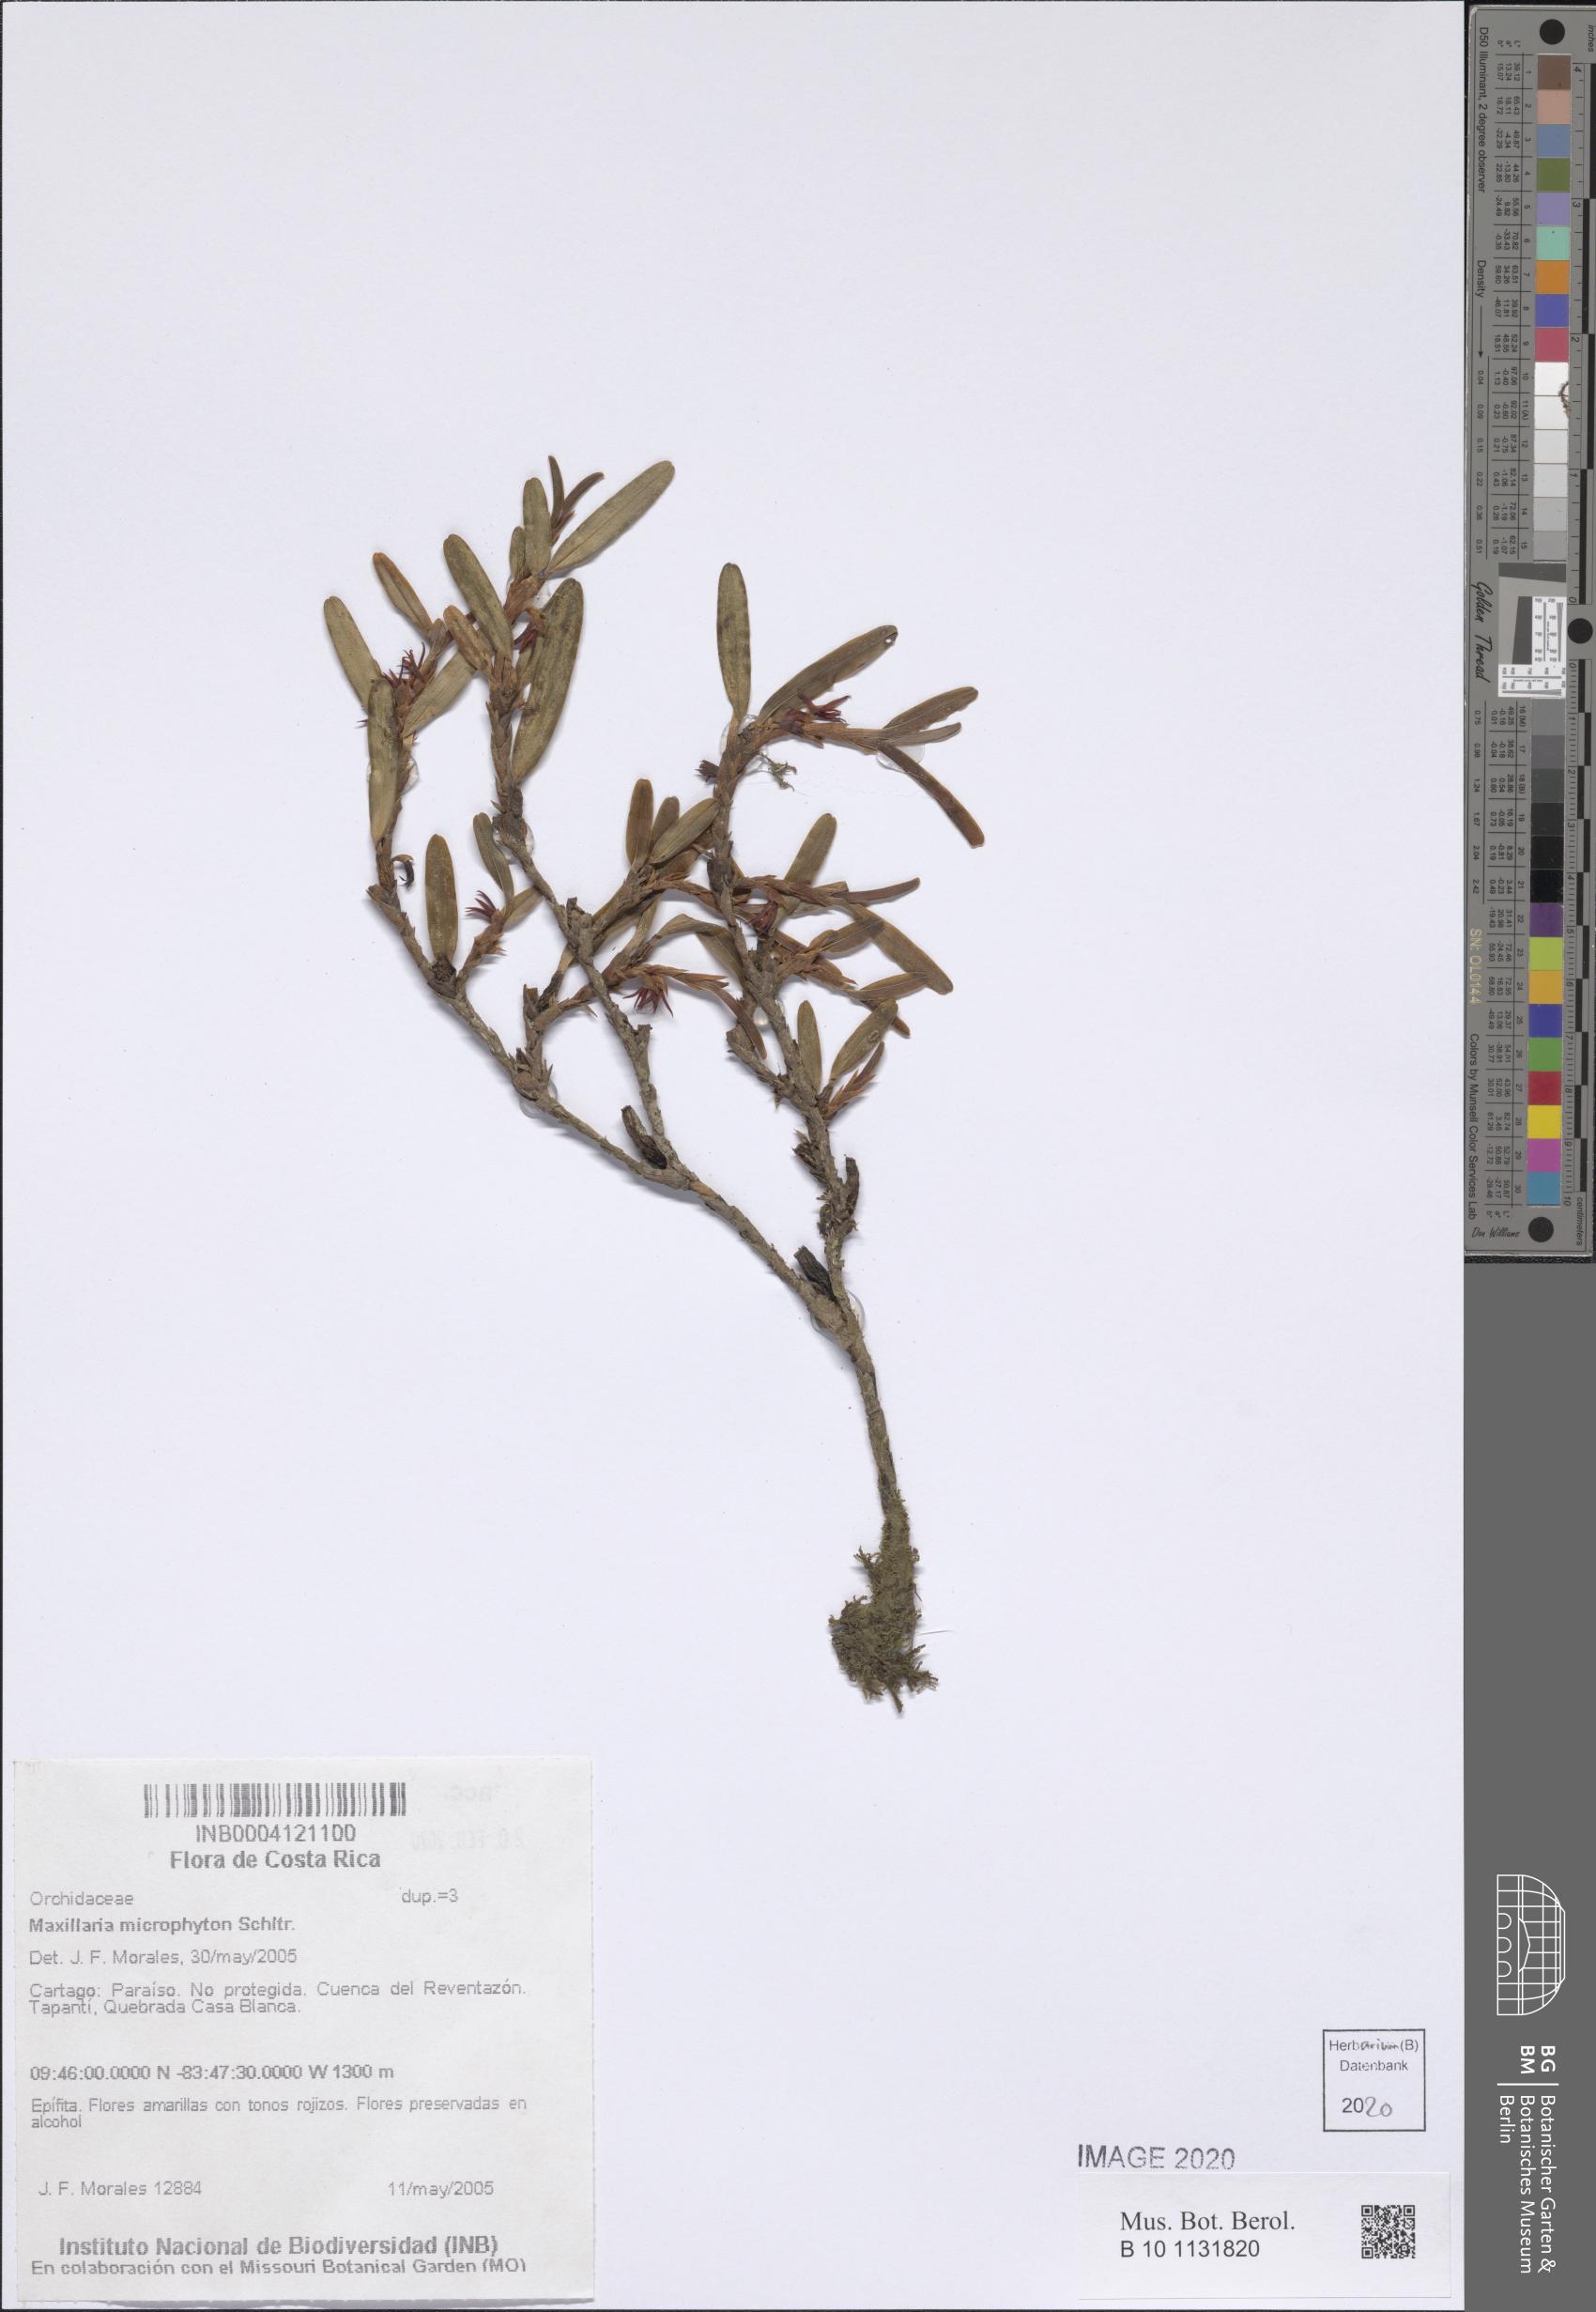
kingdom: Plantae
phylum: Tracheophyta
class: Liliopsida
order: Asparagales
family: Orchidaceae
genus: Maxillaria
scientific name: Maxillaria microphyton
